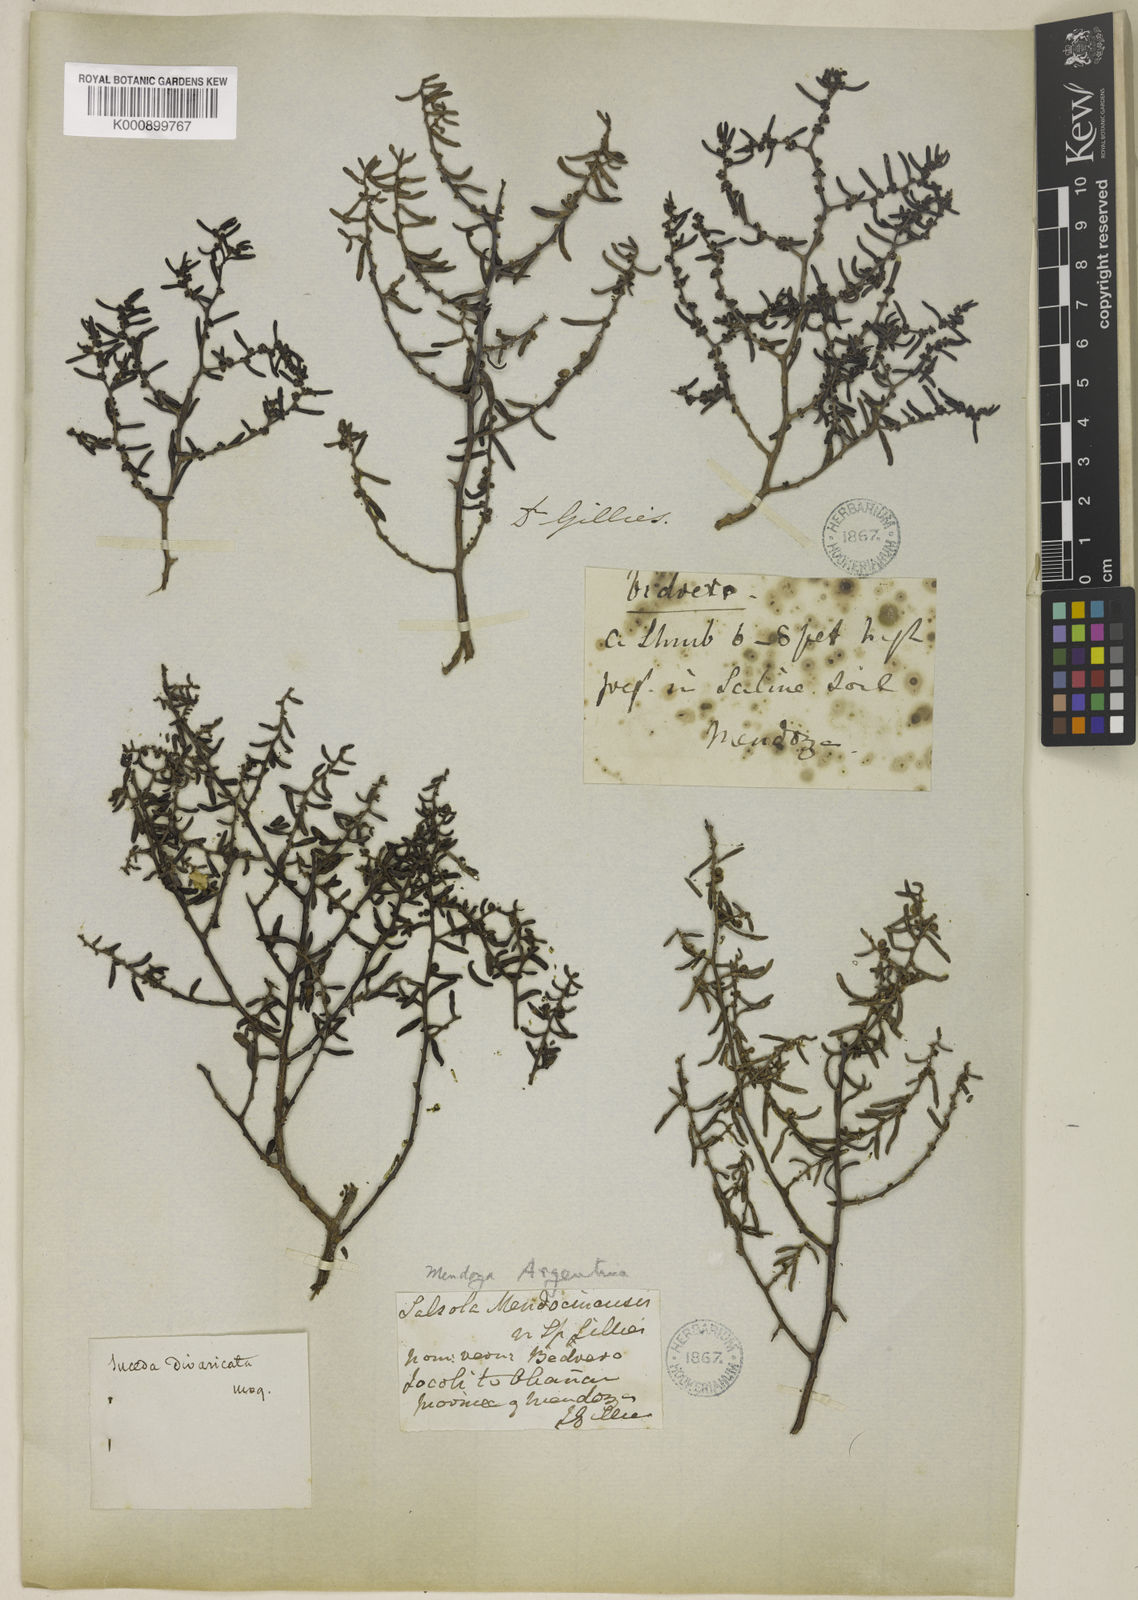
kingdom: Plantae
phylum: Tracheophyta
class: Magnoliopsida
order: Caryophyllales
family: Amaranthaceae
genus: Suaeda
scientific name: Suaeda divaricata
